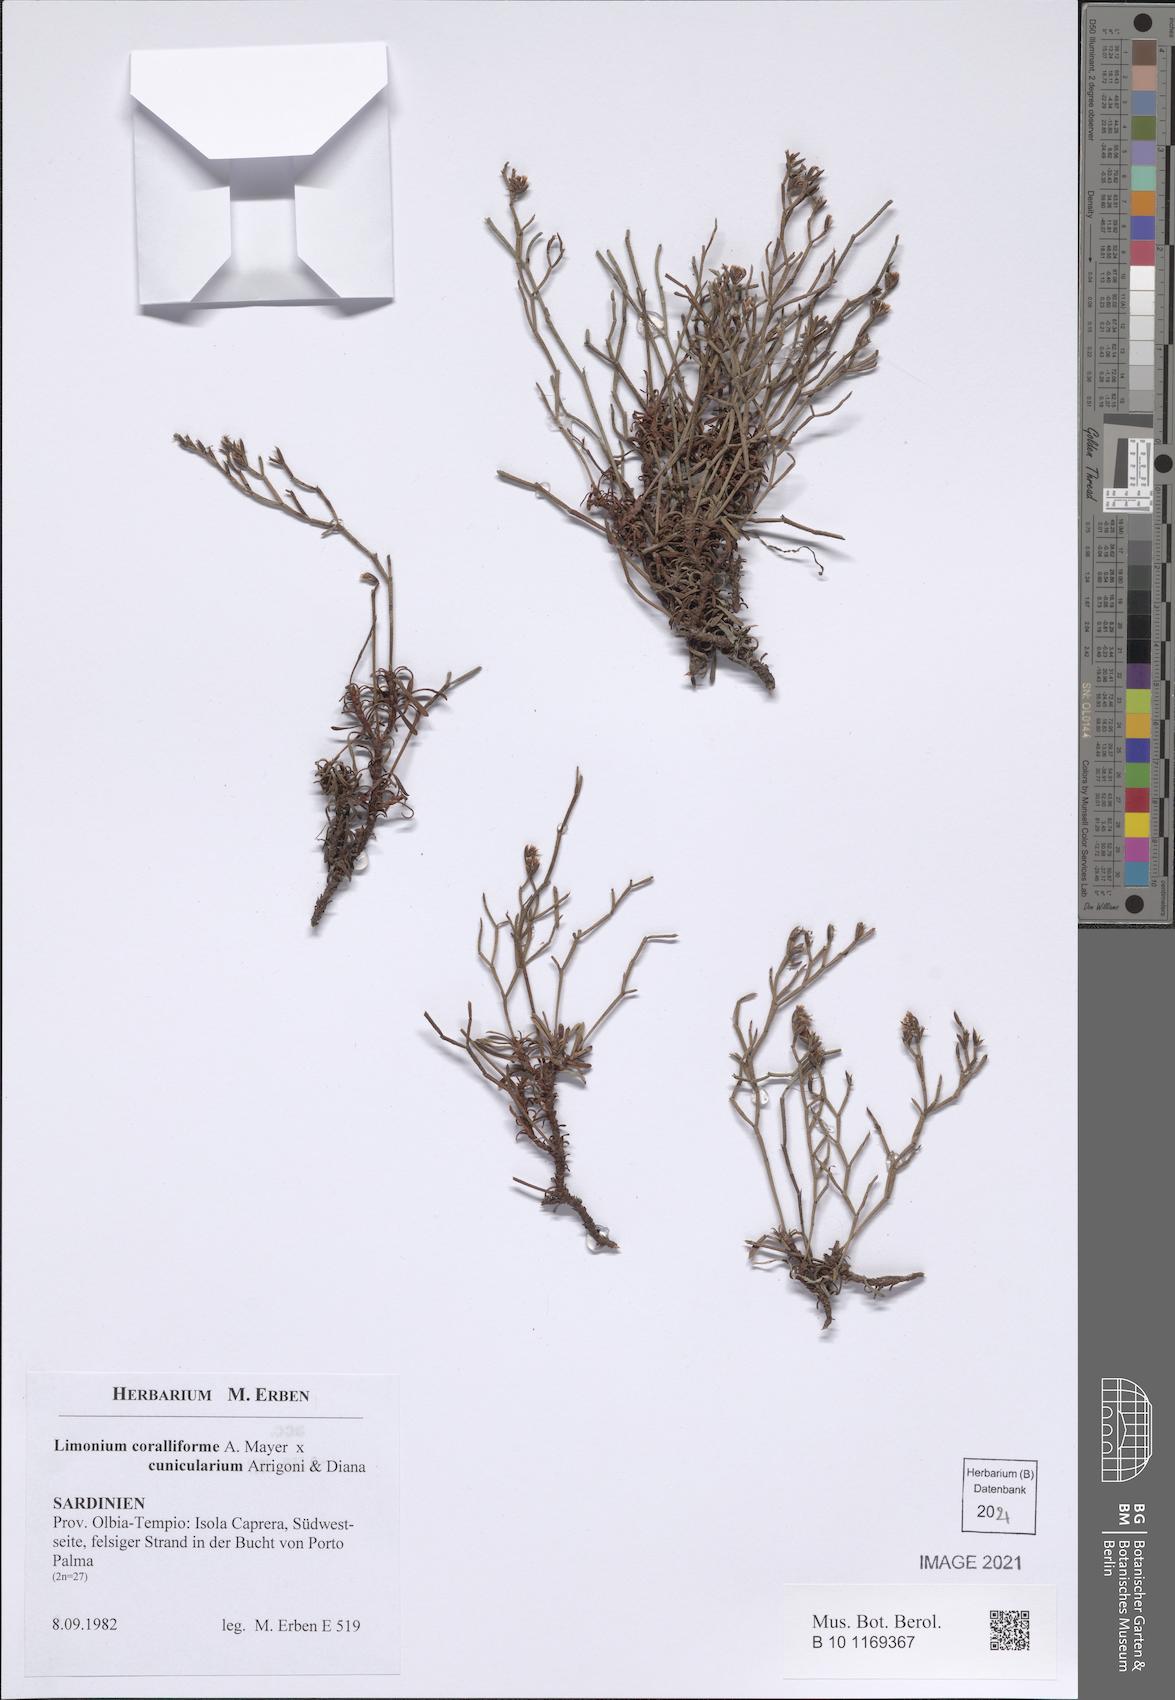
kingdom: Plantae
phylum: Tracheophyta
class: Magnoliopsida
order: Caryophyllales
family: Plumbaginaceae
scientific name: Plumbaginaceae
